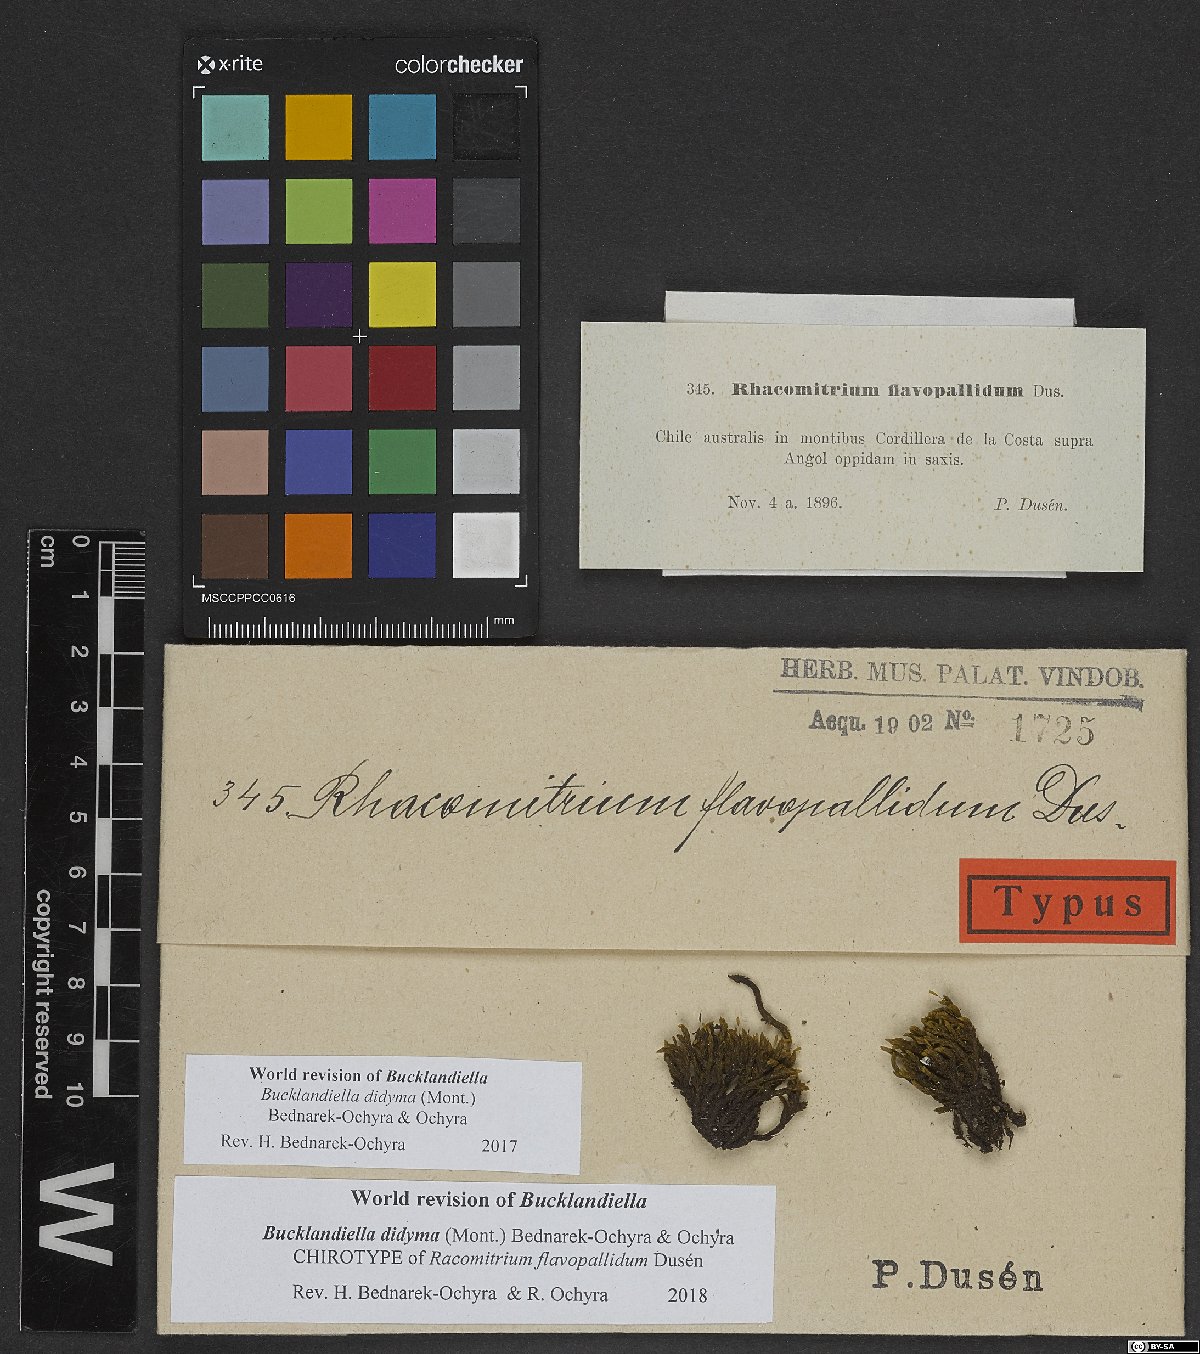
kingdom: Plantae
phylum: Bryophyta
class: Bryopsida
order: Grimmiales
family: Grimmiaceae
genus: Racomitrium
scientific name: Racomitrium flavo-pallidum
